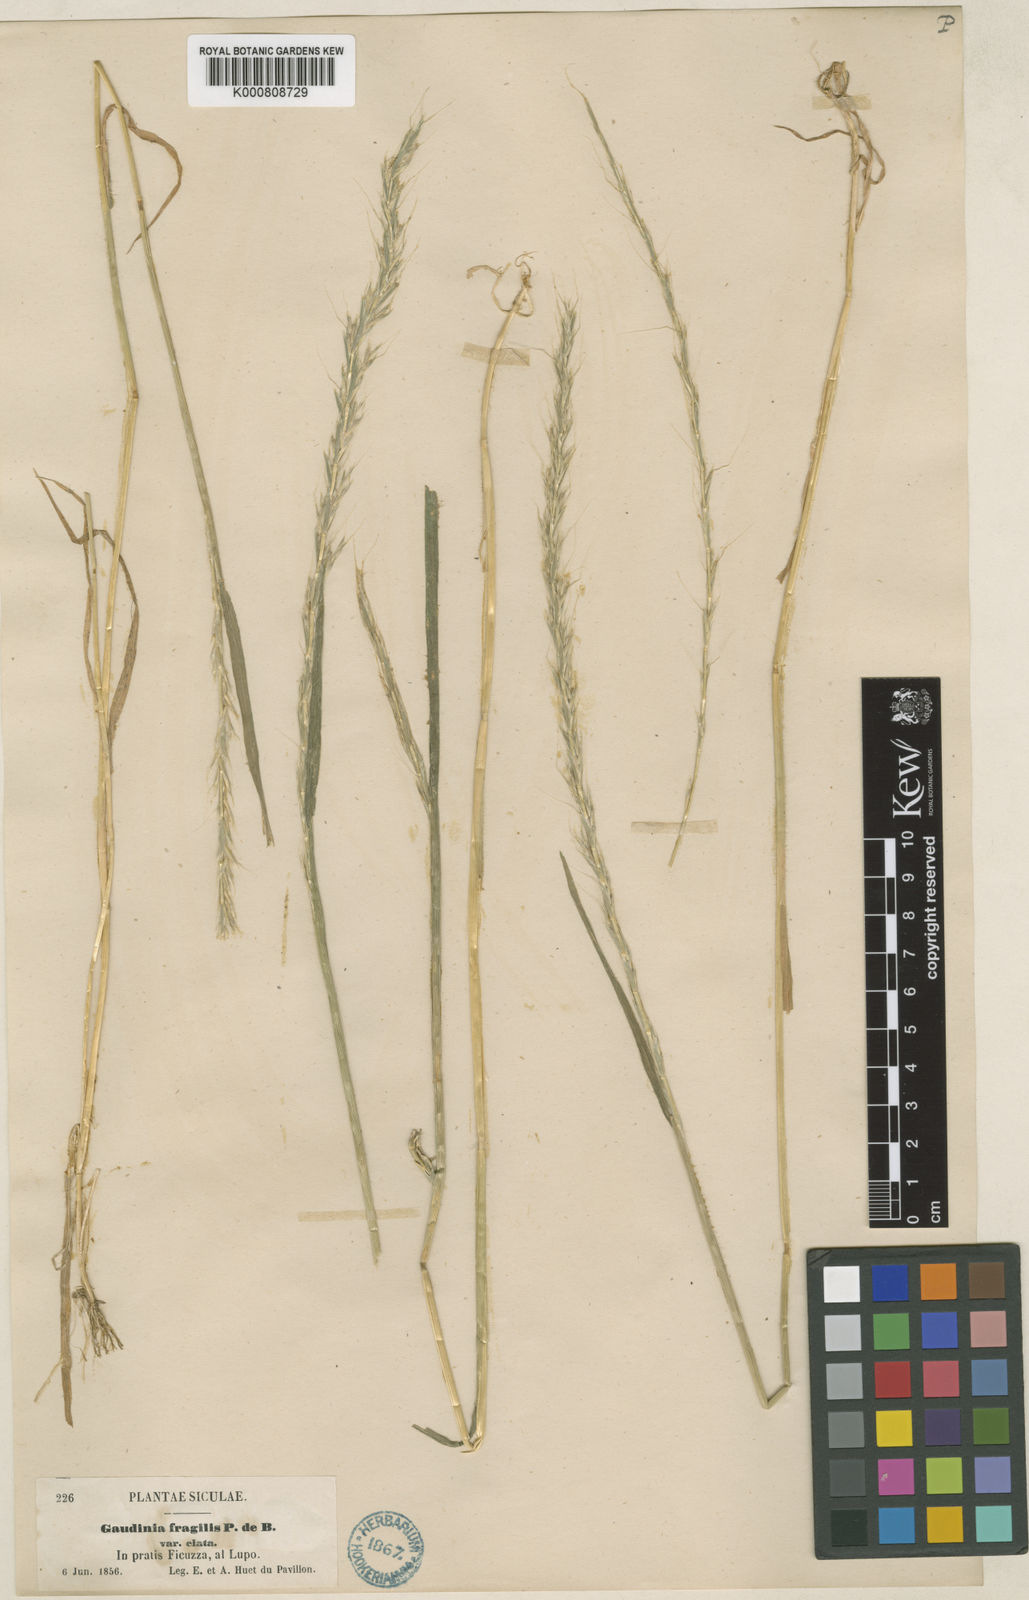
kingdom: Plantae
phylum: Tracheophyta
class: Liliopsida
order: Poales
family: Poaceae
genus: Gaudinia
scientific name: Gaudinia fragilis
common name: French oat-grass
